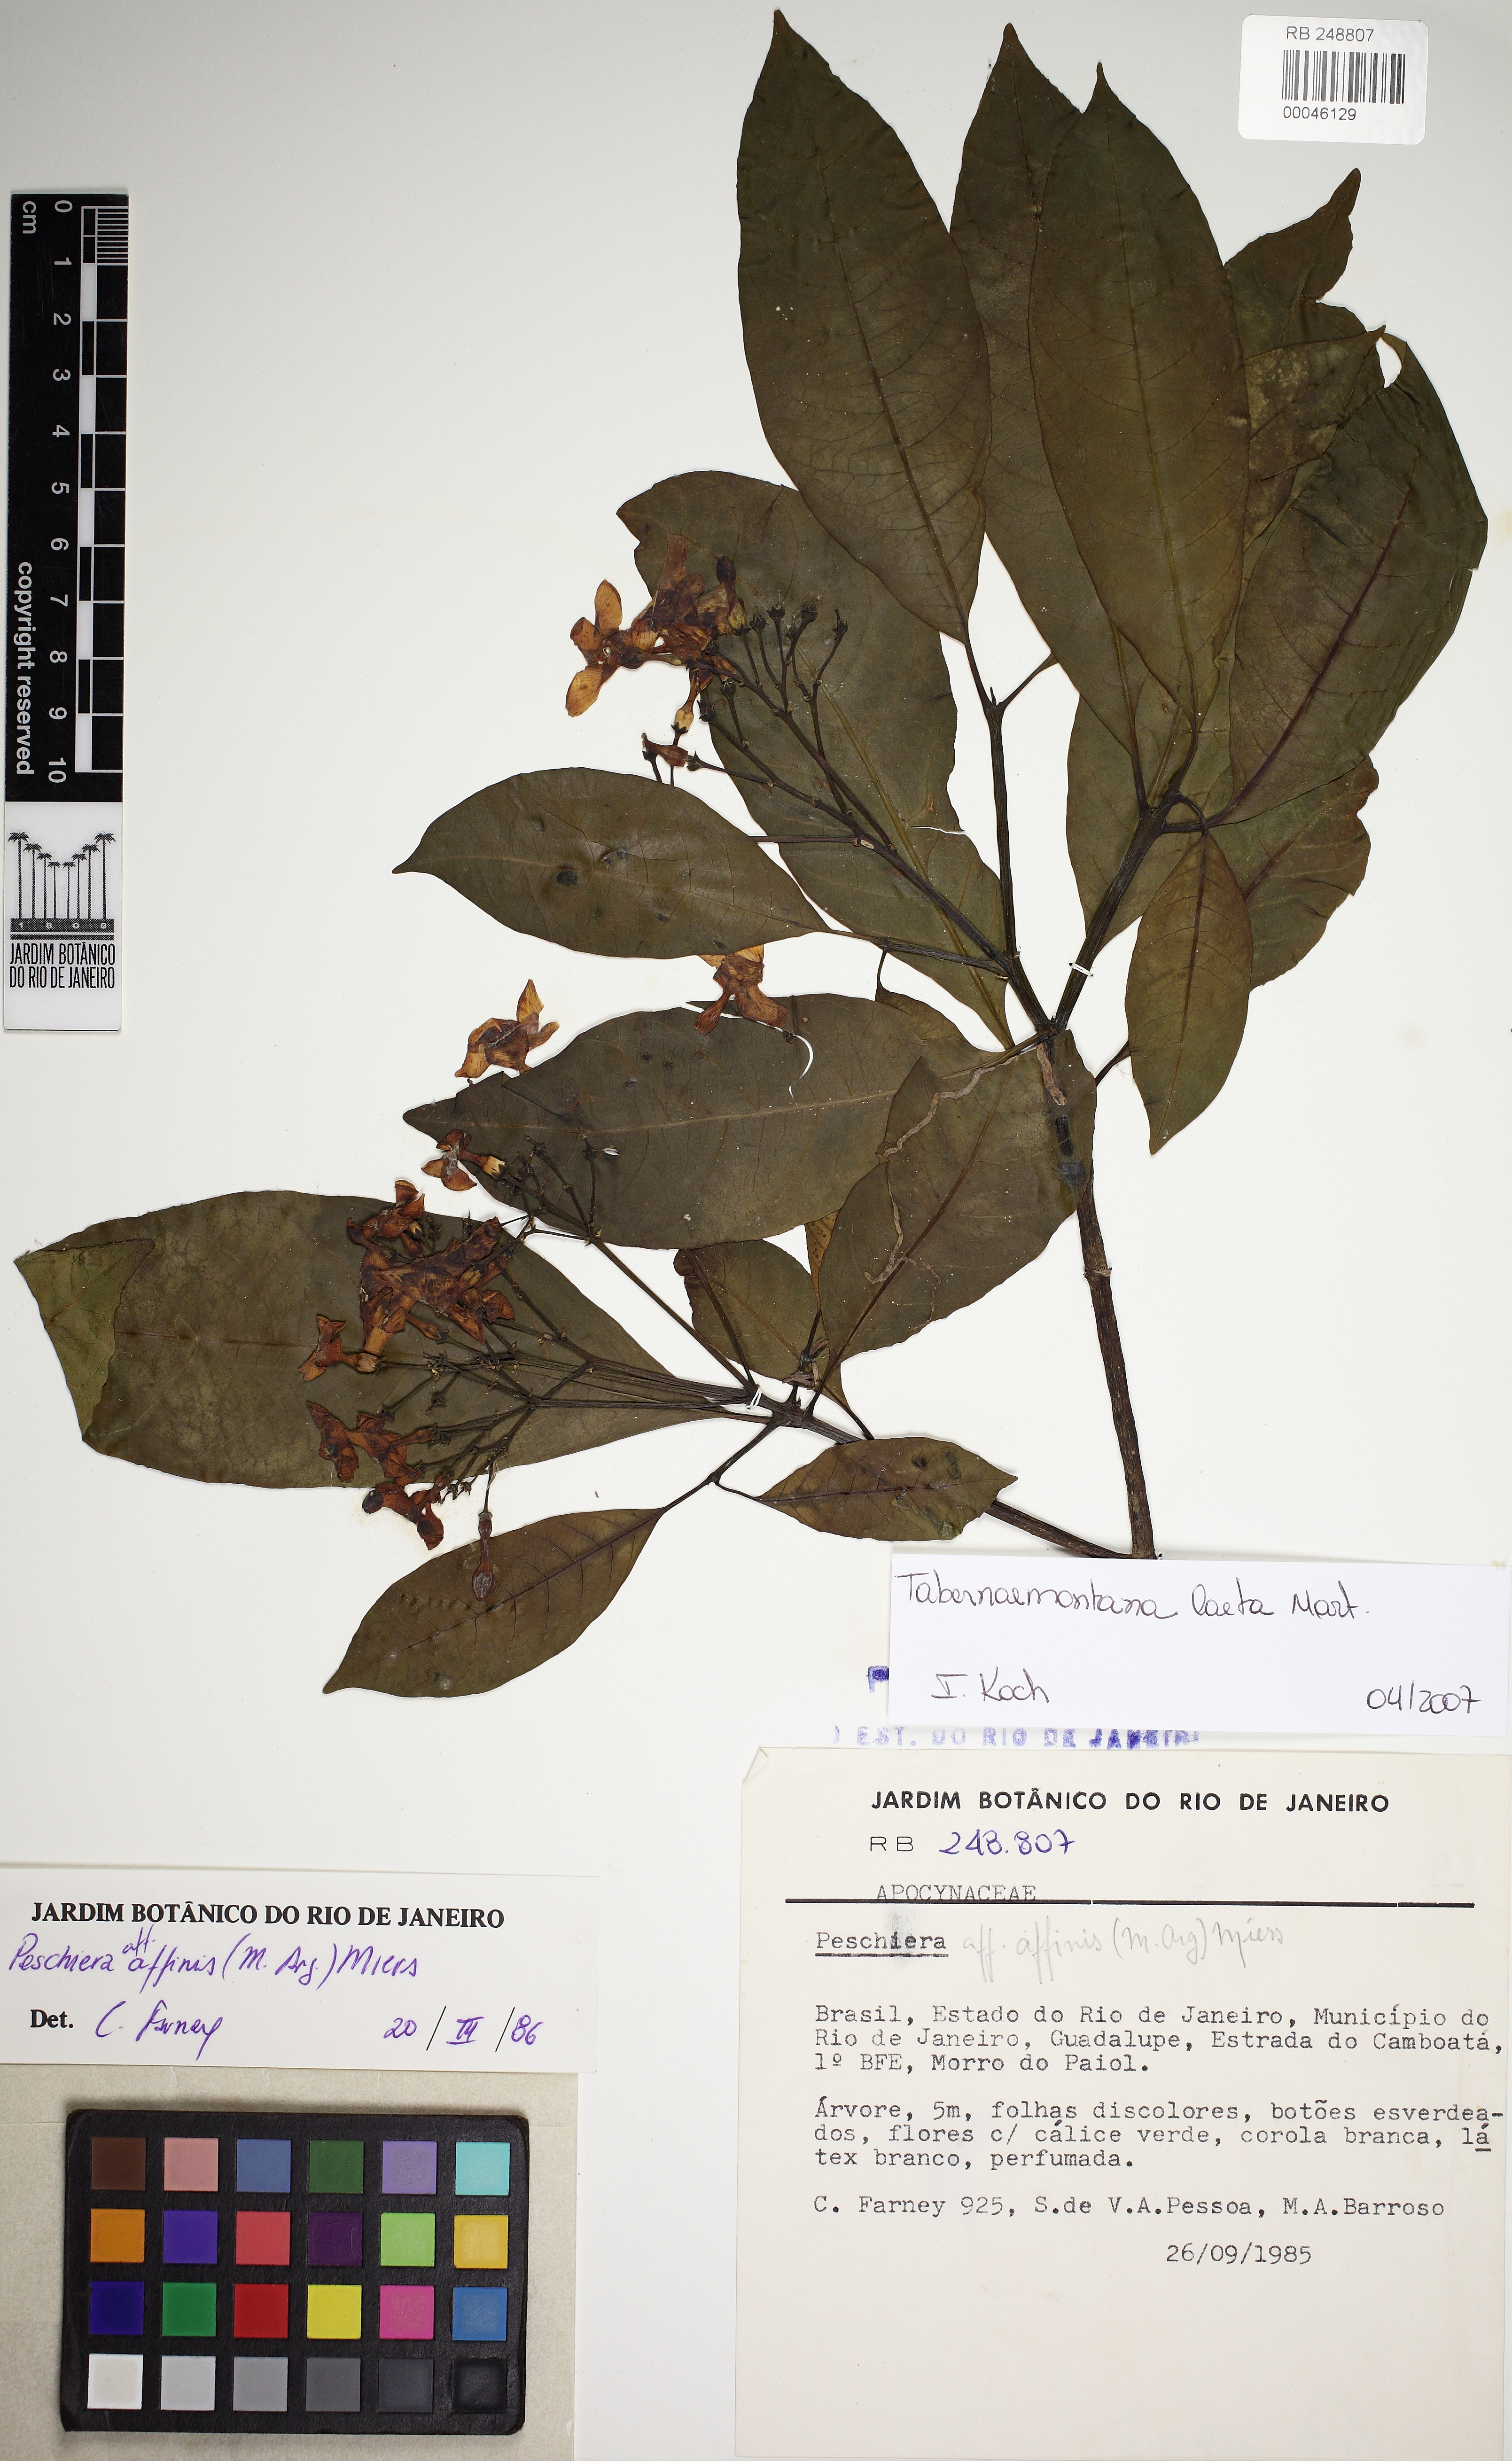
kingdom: Plantae
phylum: Tracheophyta
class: Magnoliopsida
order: Gentianales
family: Apocynaceae
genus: Tabernaemontana
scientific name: Tabernaemontana laeta
